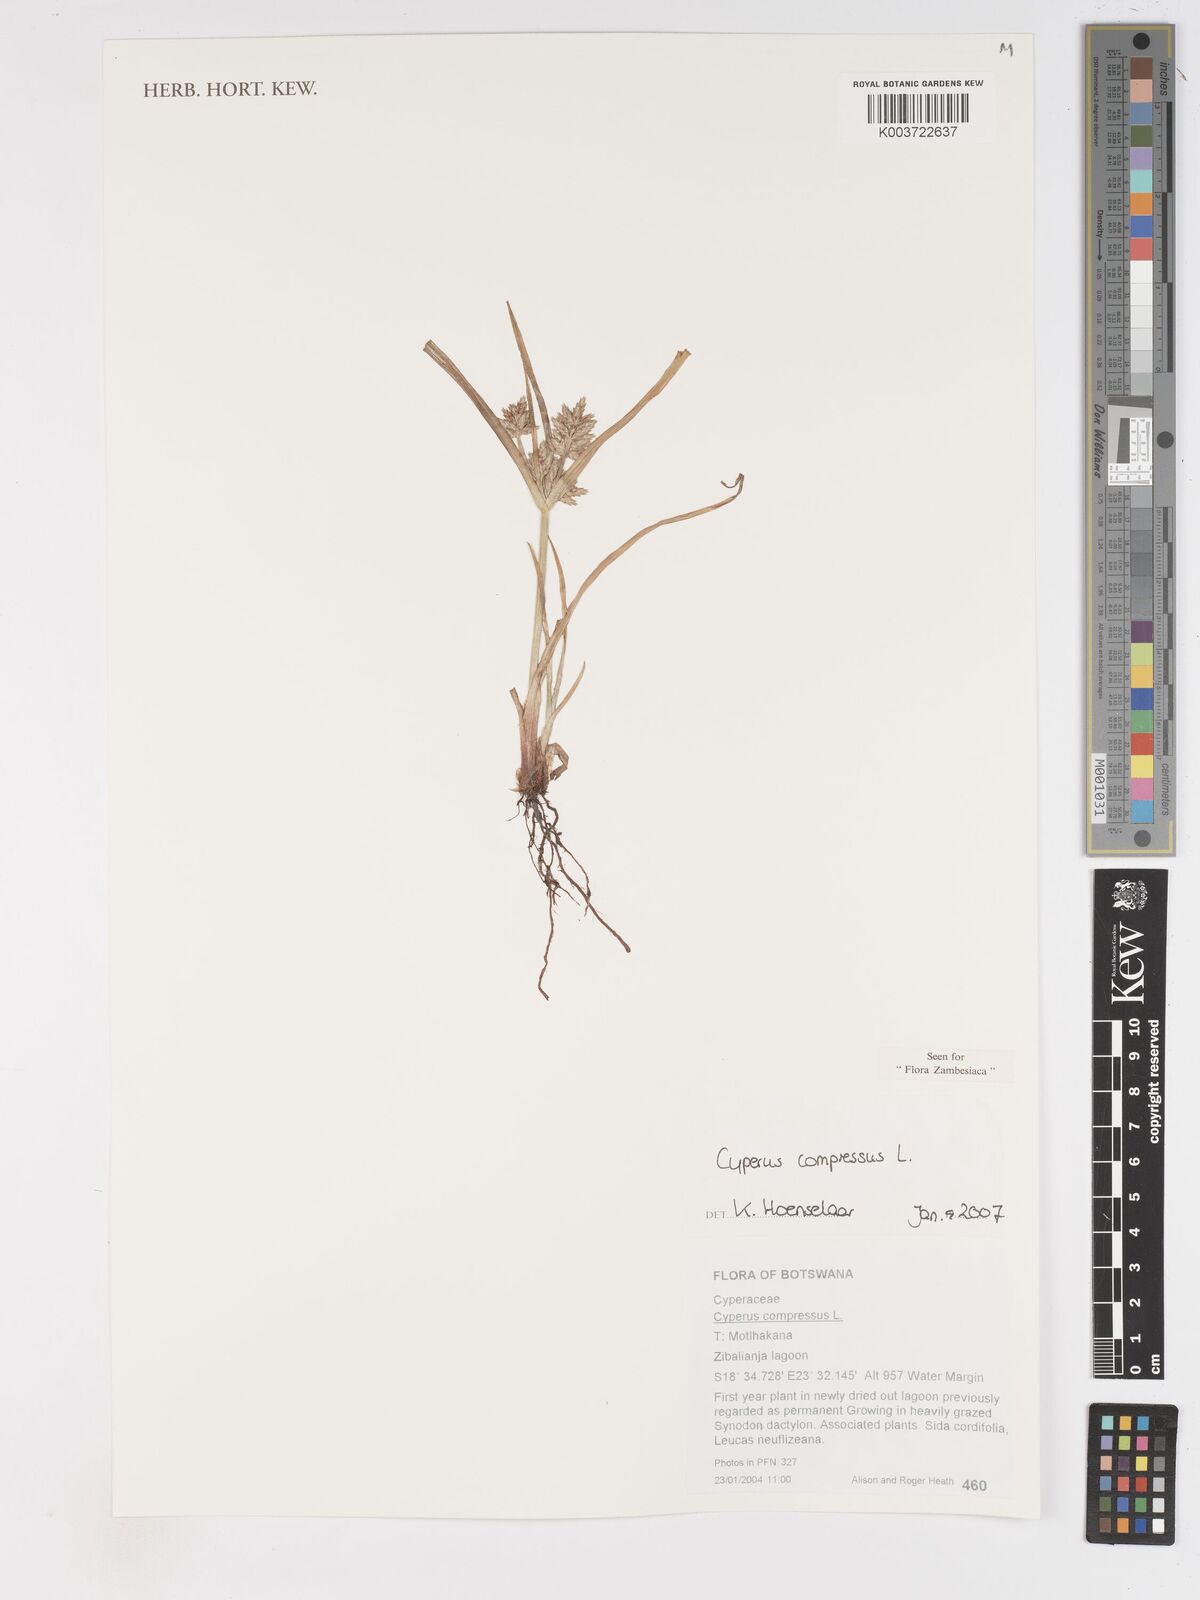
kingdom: Plantae
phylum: Tracheophyta
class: Liliopsida
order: Poales
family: Cyperaceae
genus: Cyperus
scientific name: Cyperus compressus
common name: Poorland flatsedge
